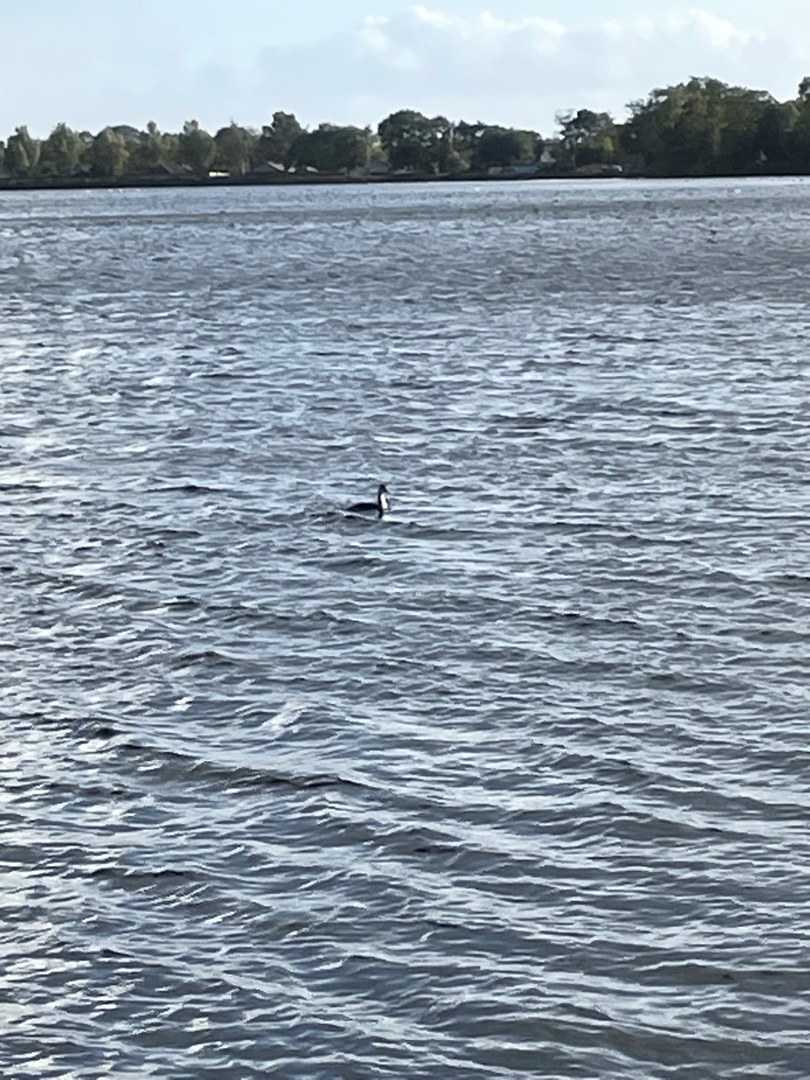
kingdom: Animalia
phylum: Chordata
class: Aves
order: Podicipediformes
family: Podicipedidae
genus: Podiceps
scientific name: Podiceps cristatus
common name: Toppet lappedykker
